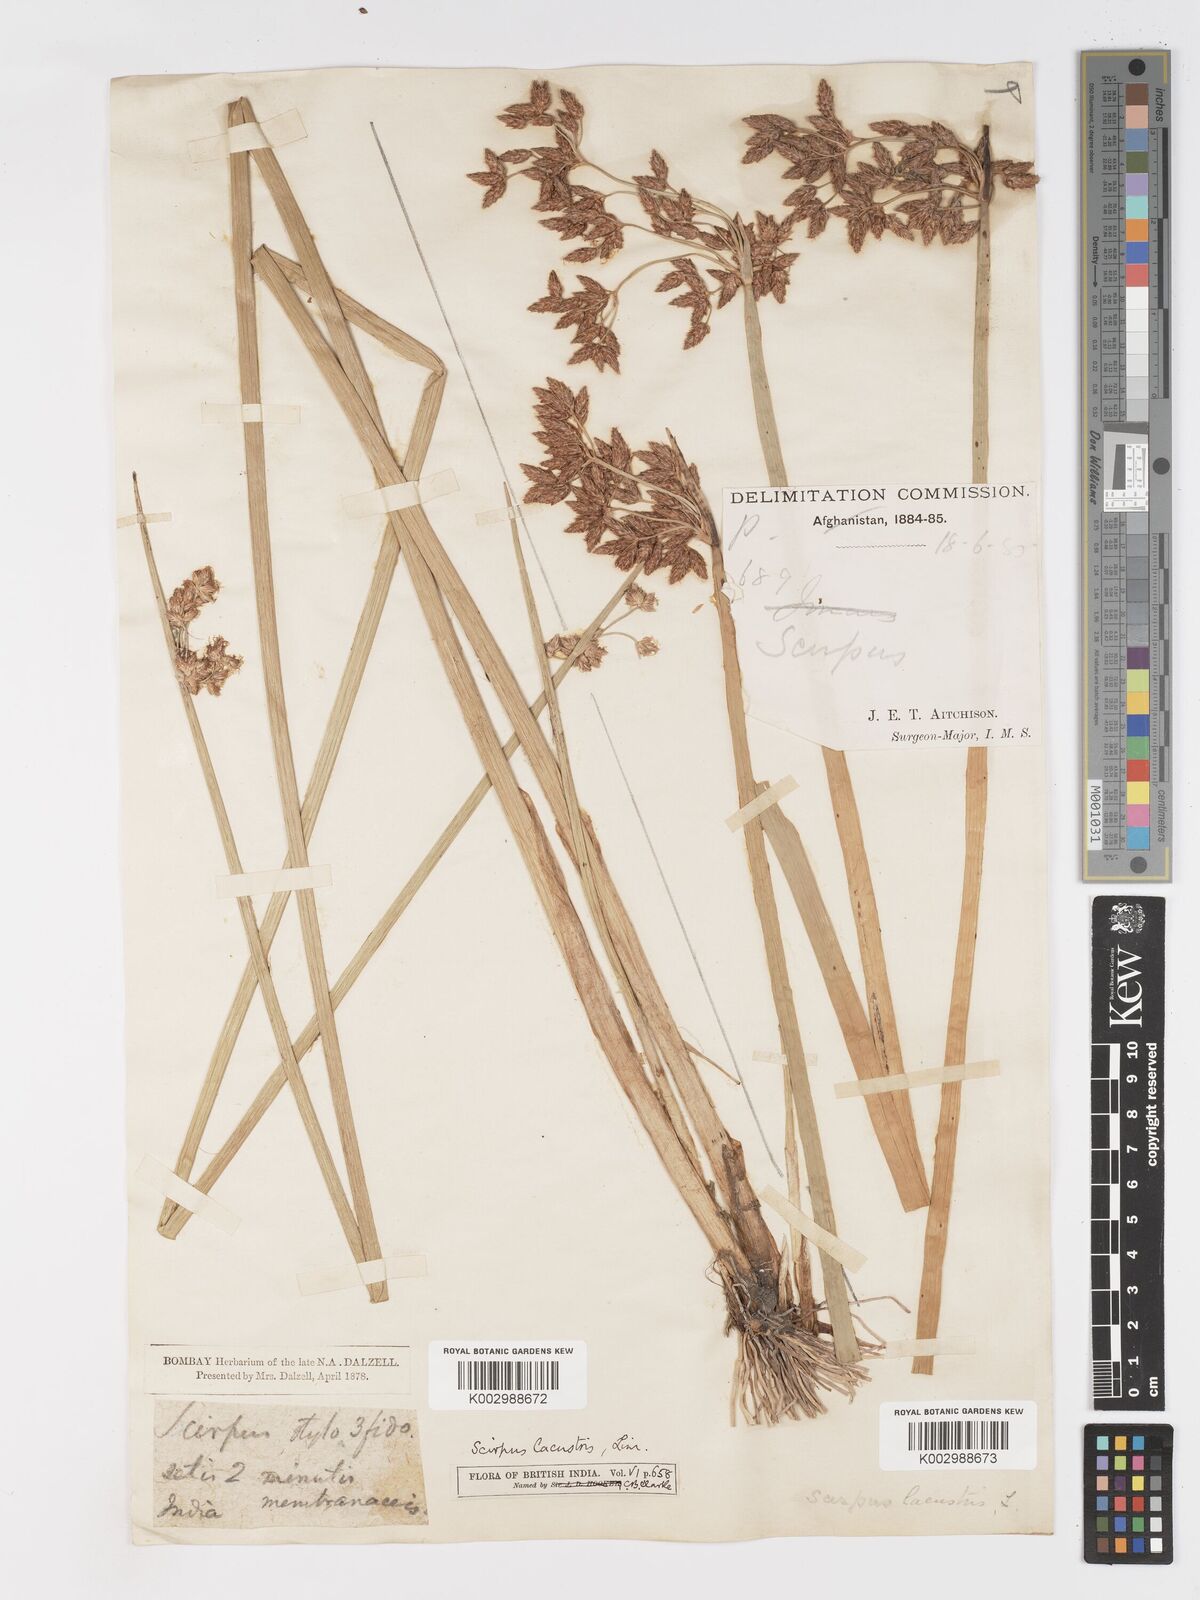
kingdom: Plantae
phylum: Tracheophyta
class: Liliopsida
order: Poales
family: Cyperaceae
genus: Schoenoplectus
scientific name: Schoenoplectus lacustris
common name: Common club-rush
